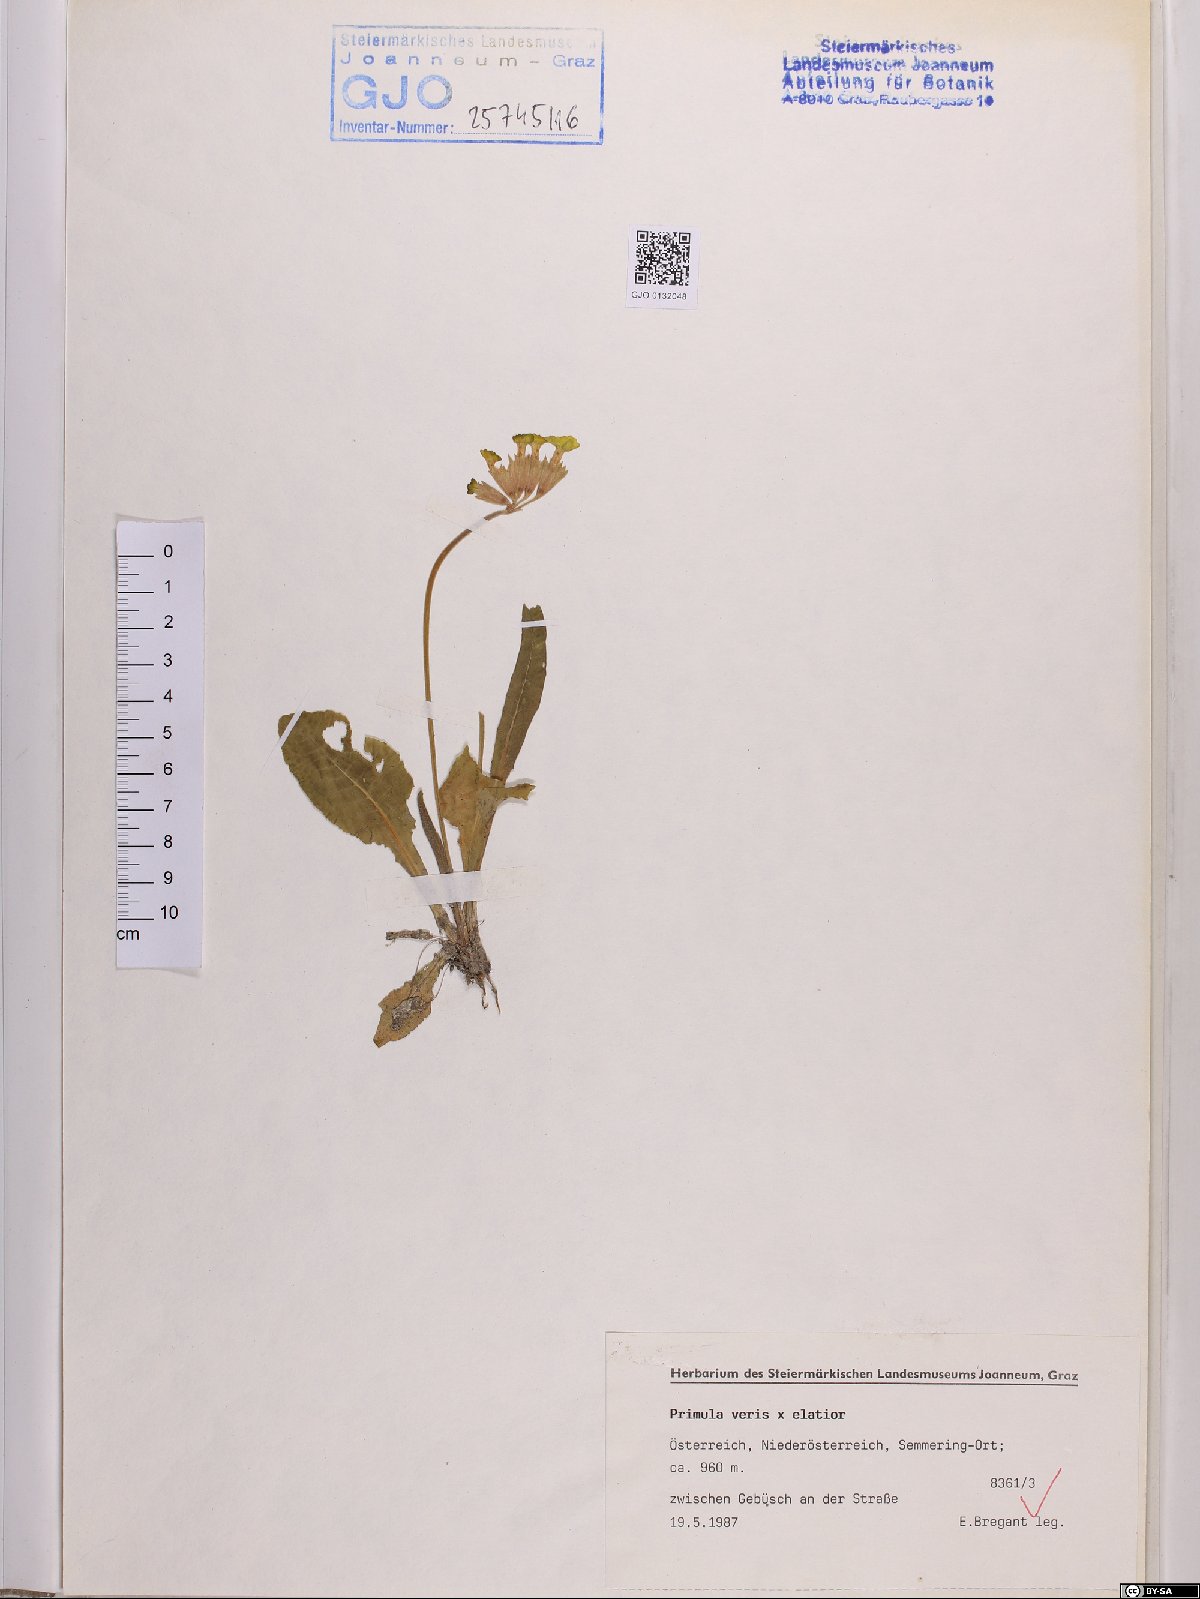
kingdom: Plantae
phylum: Tracheophyta
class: Magnoliopsida
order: Ericales
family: Primulaceae
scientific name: Primulaceae
